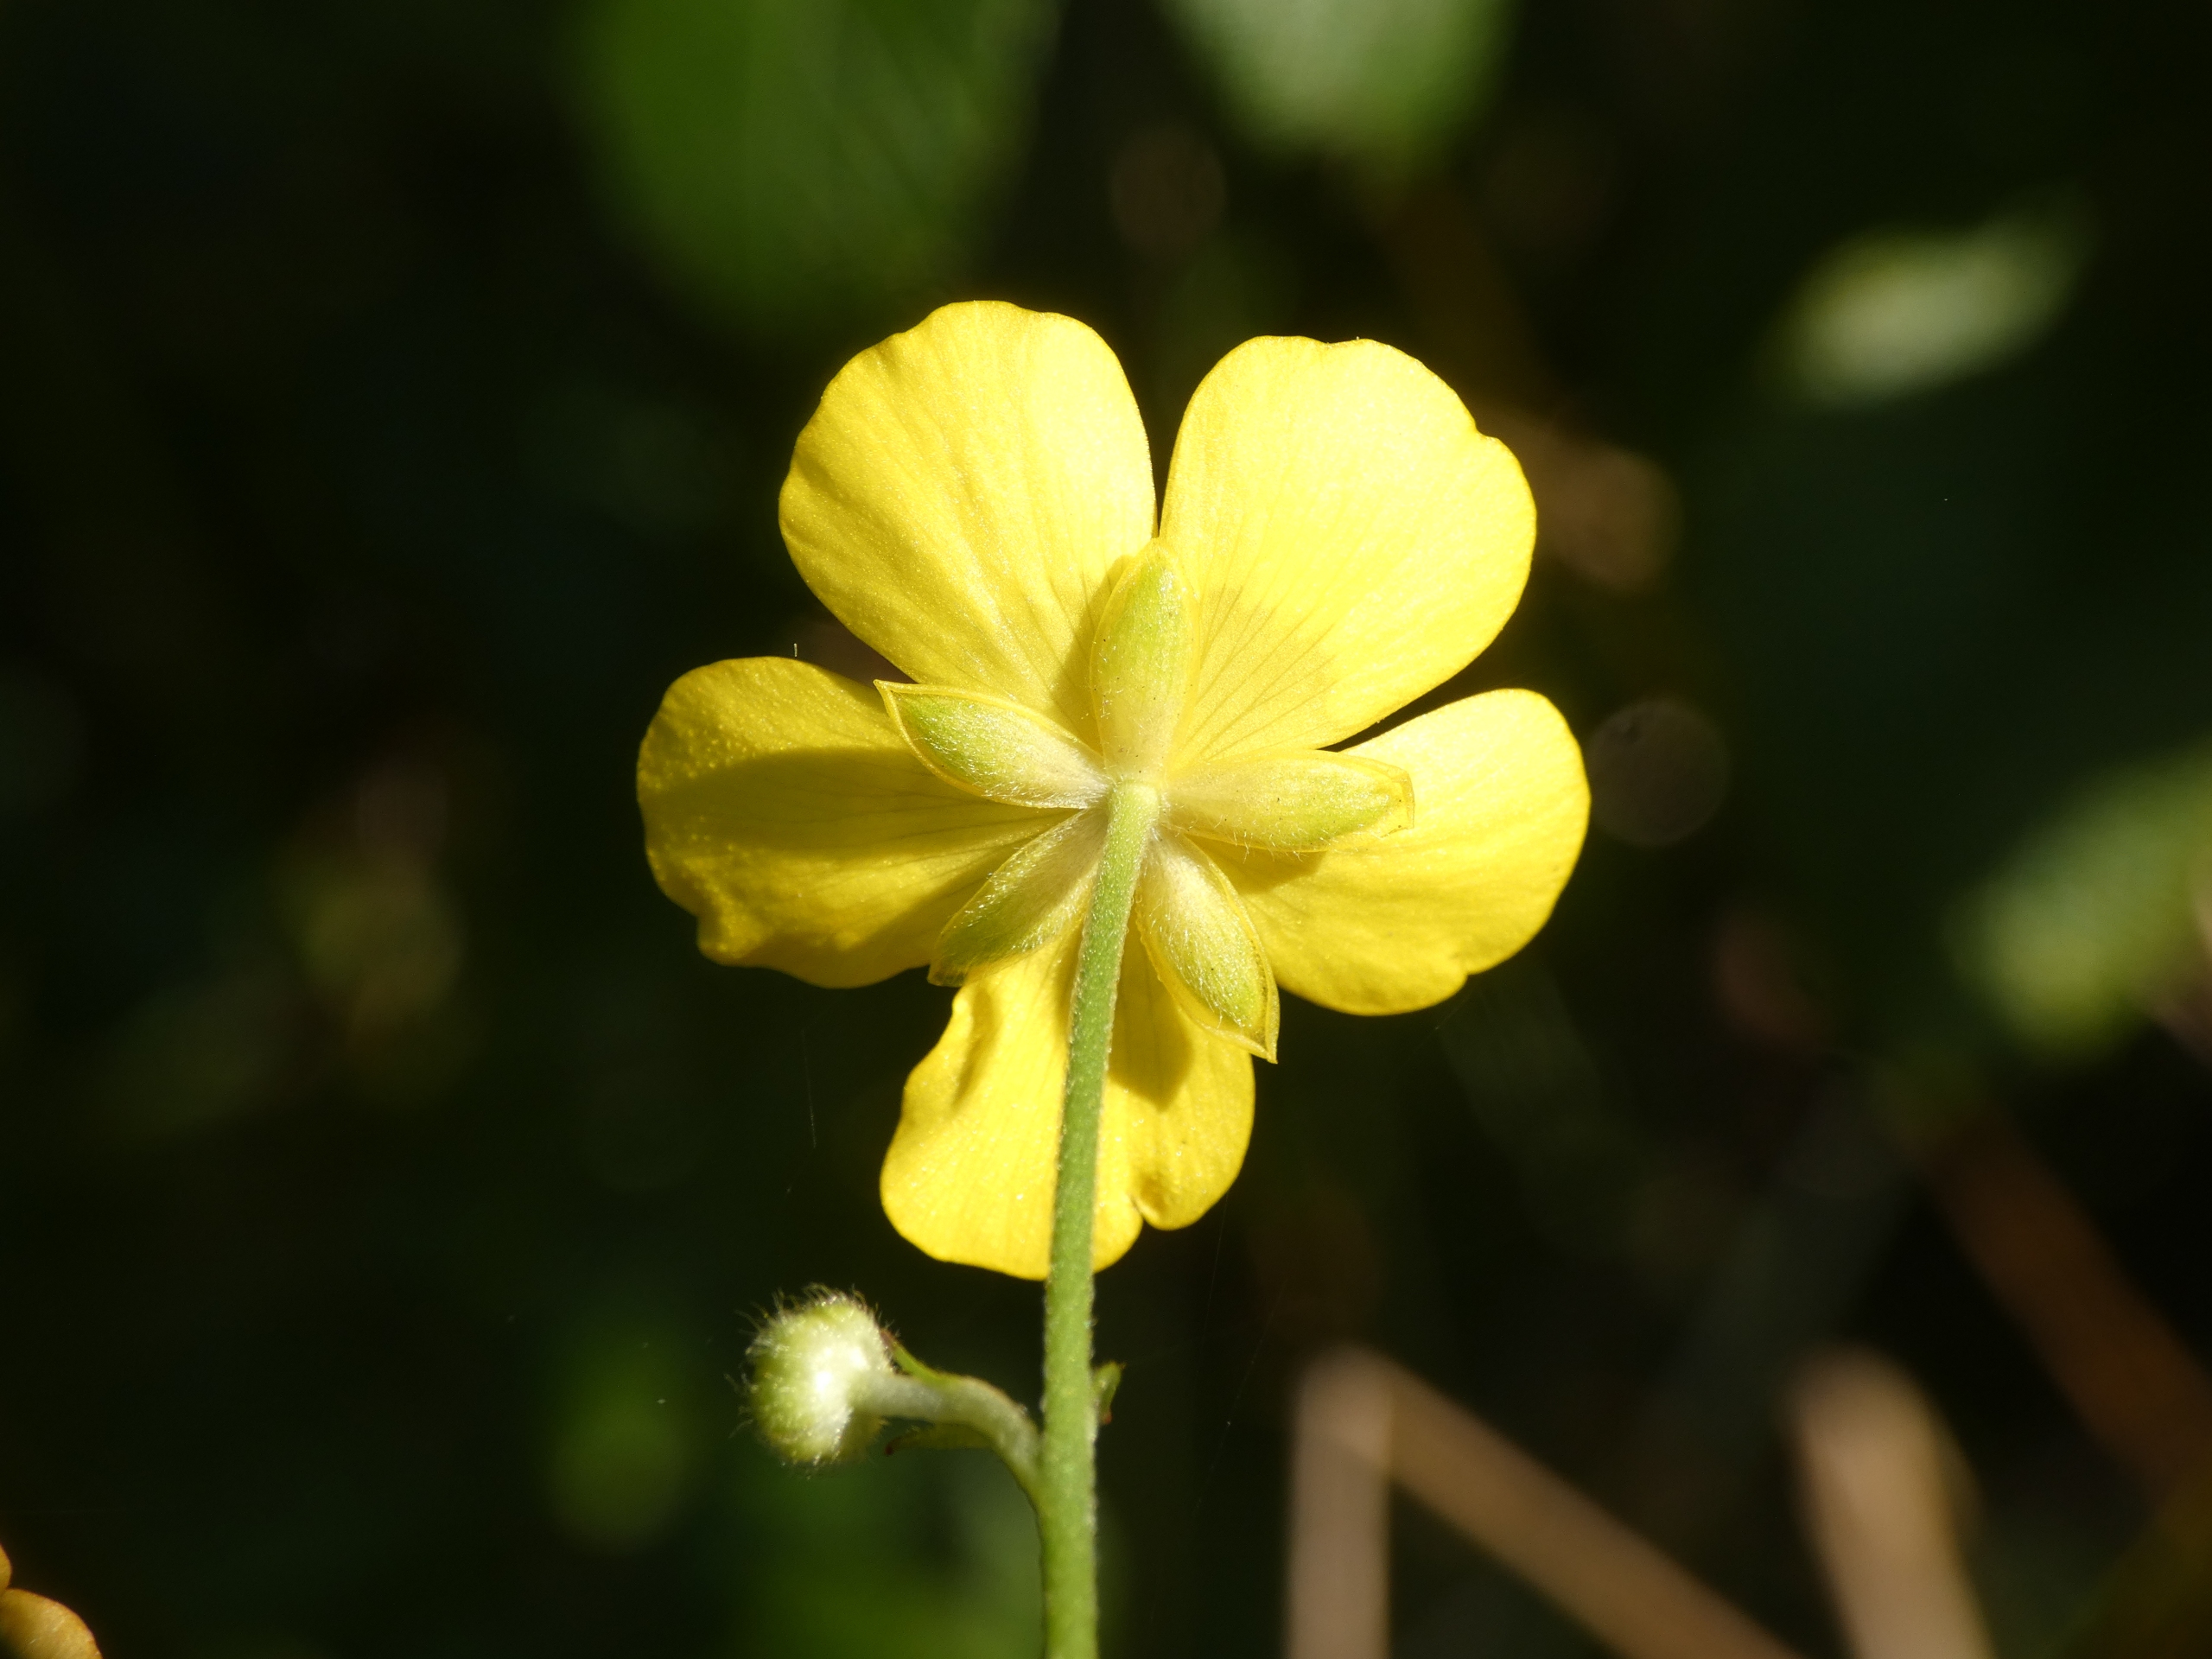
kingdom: Plantae
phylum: Tracheophyta
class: Magnoliopsida
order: Ranunculales
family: Ranunculaceae
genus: Ranunculus
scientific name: Ranunculus acris
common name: Bidende ranunkel
